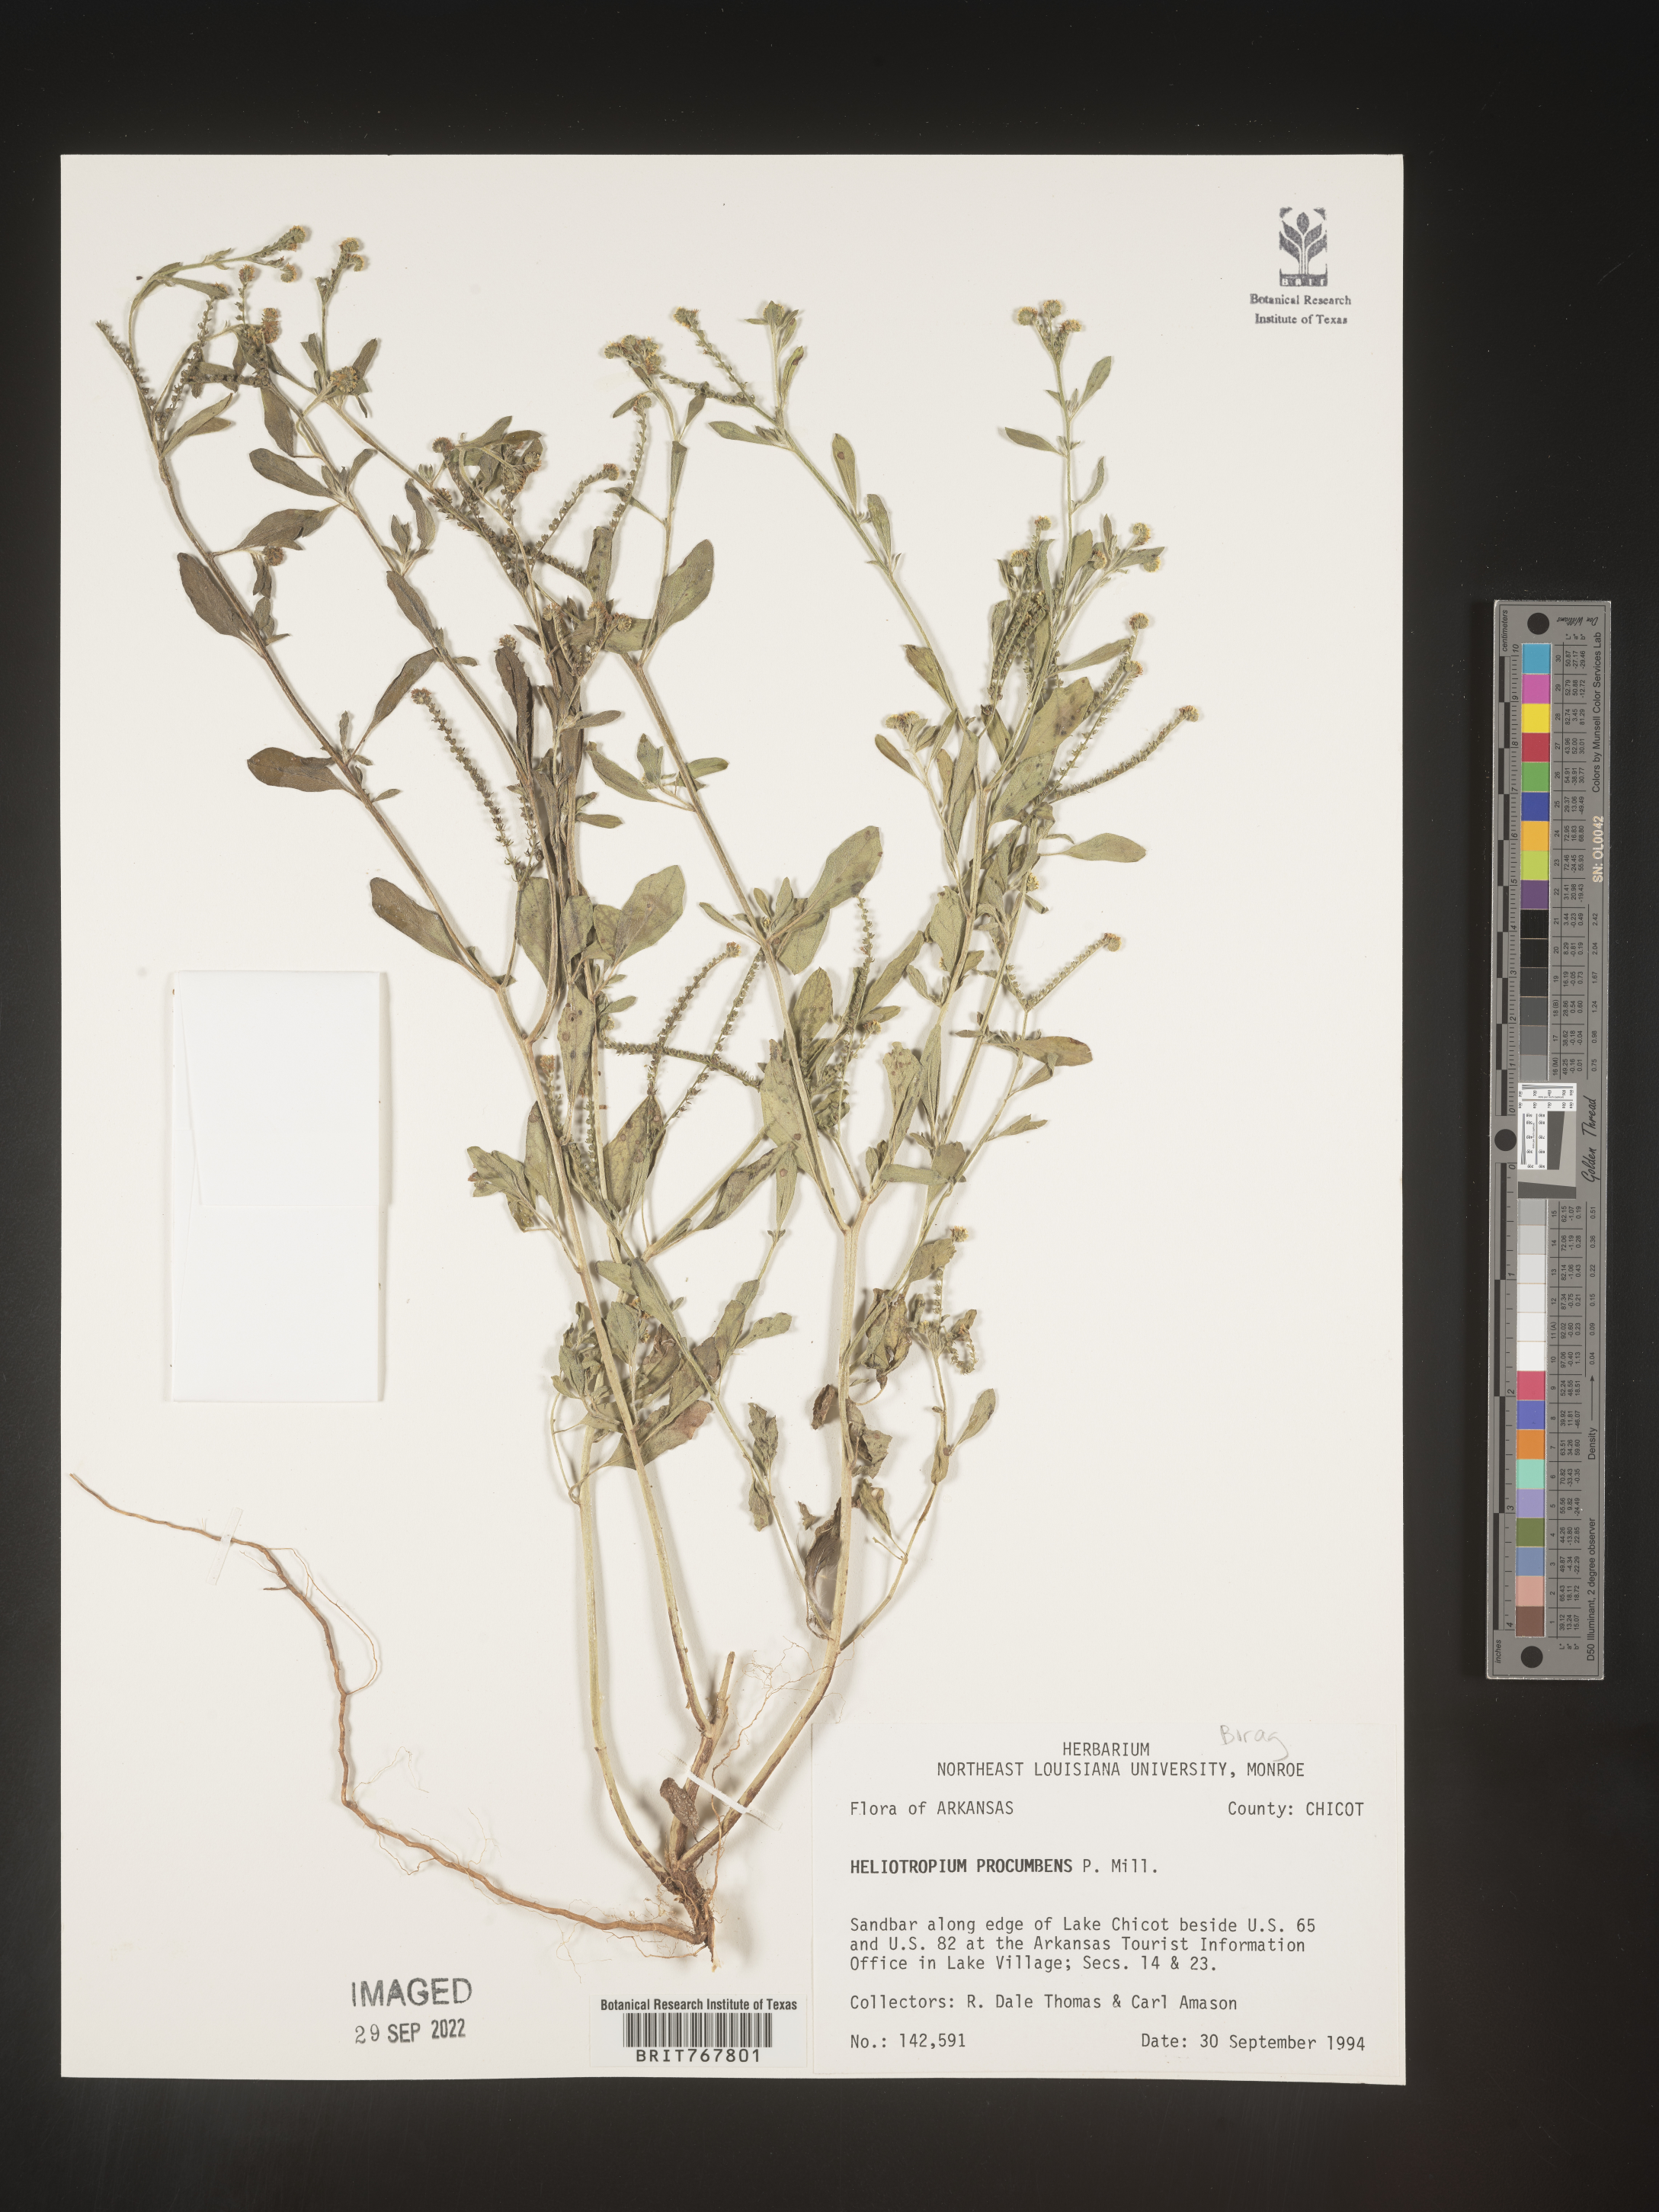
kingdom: Plantae
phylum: Tracheophyta
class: Magnoliopsida
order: Boraginales
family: Heliotropiaceae
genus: Heliotropium
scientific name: Heliotropium
